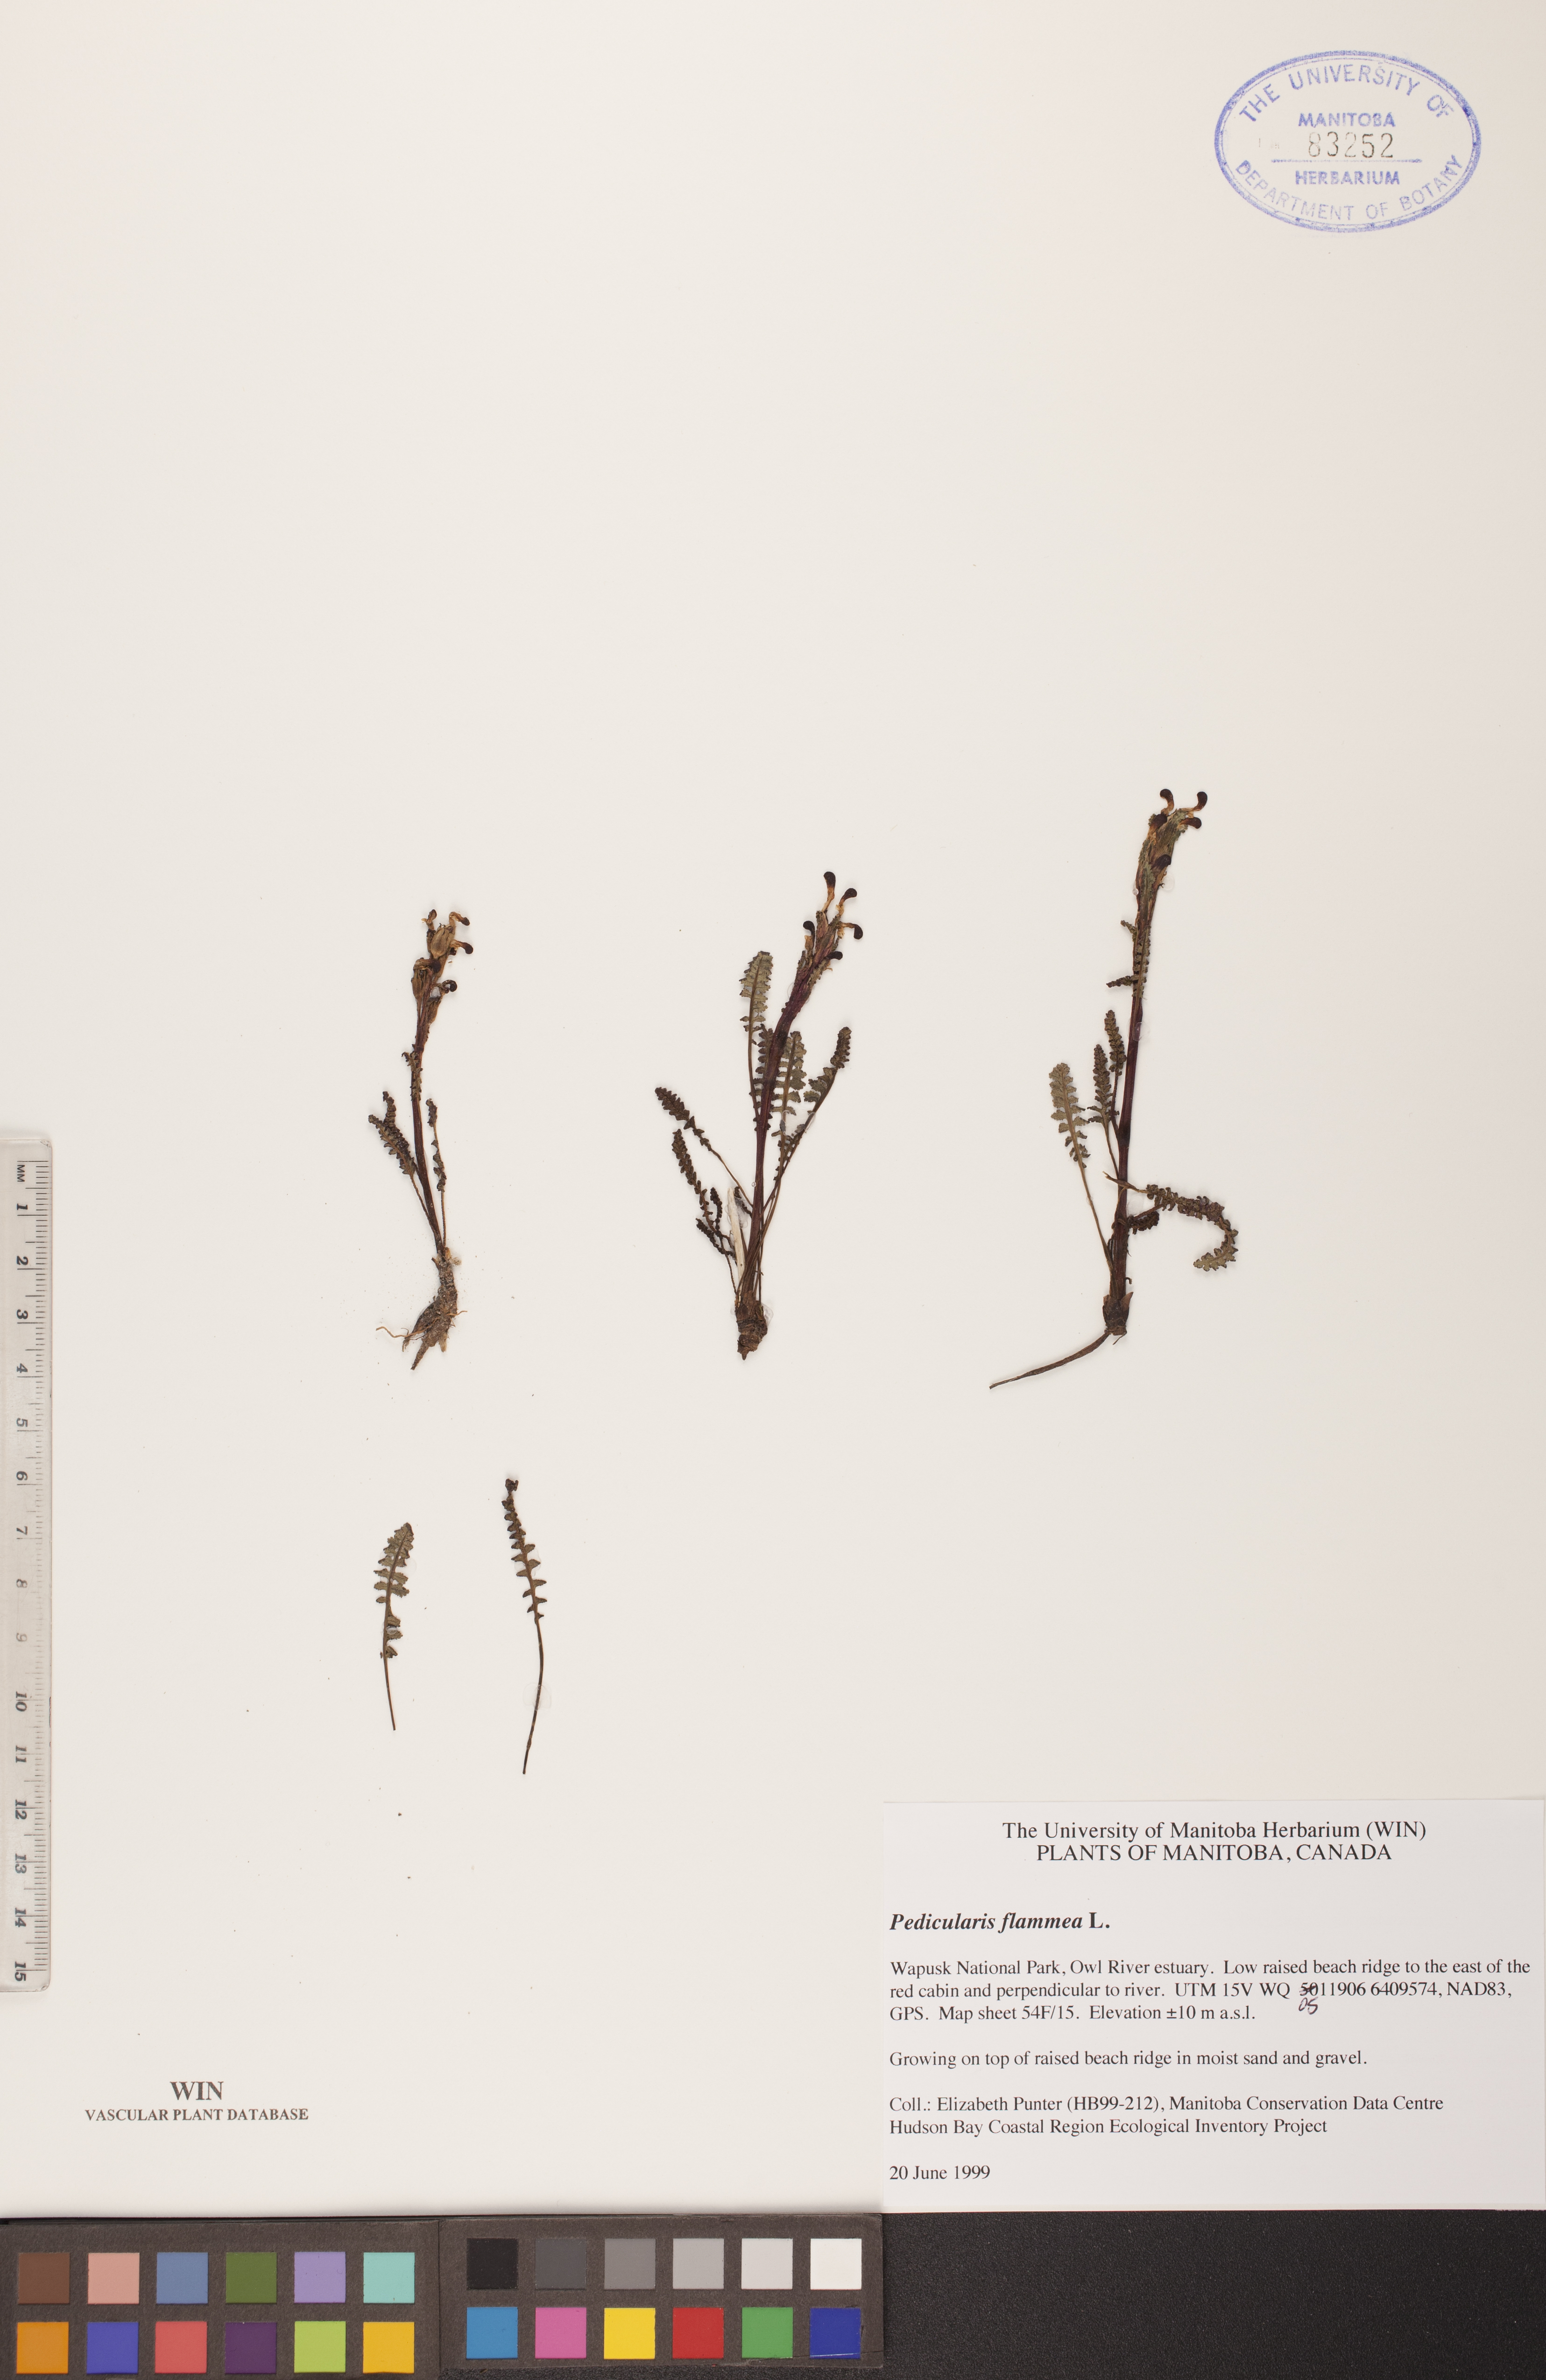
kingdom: Plantae
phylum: Tracheophyta
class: Magnoliopsida
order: Lamiales
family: Orobanchaceae
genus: Pedicularis
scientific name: Pedicularis flammea
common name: Flame-coloured lousewort
